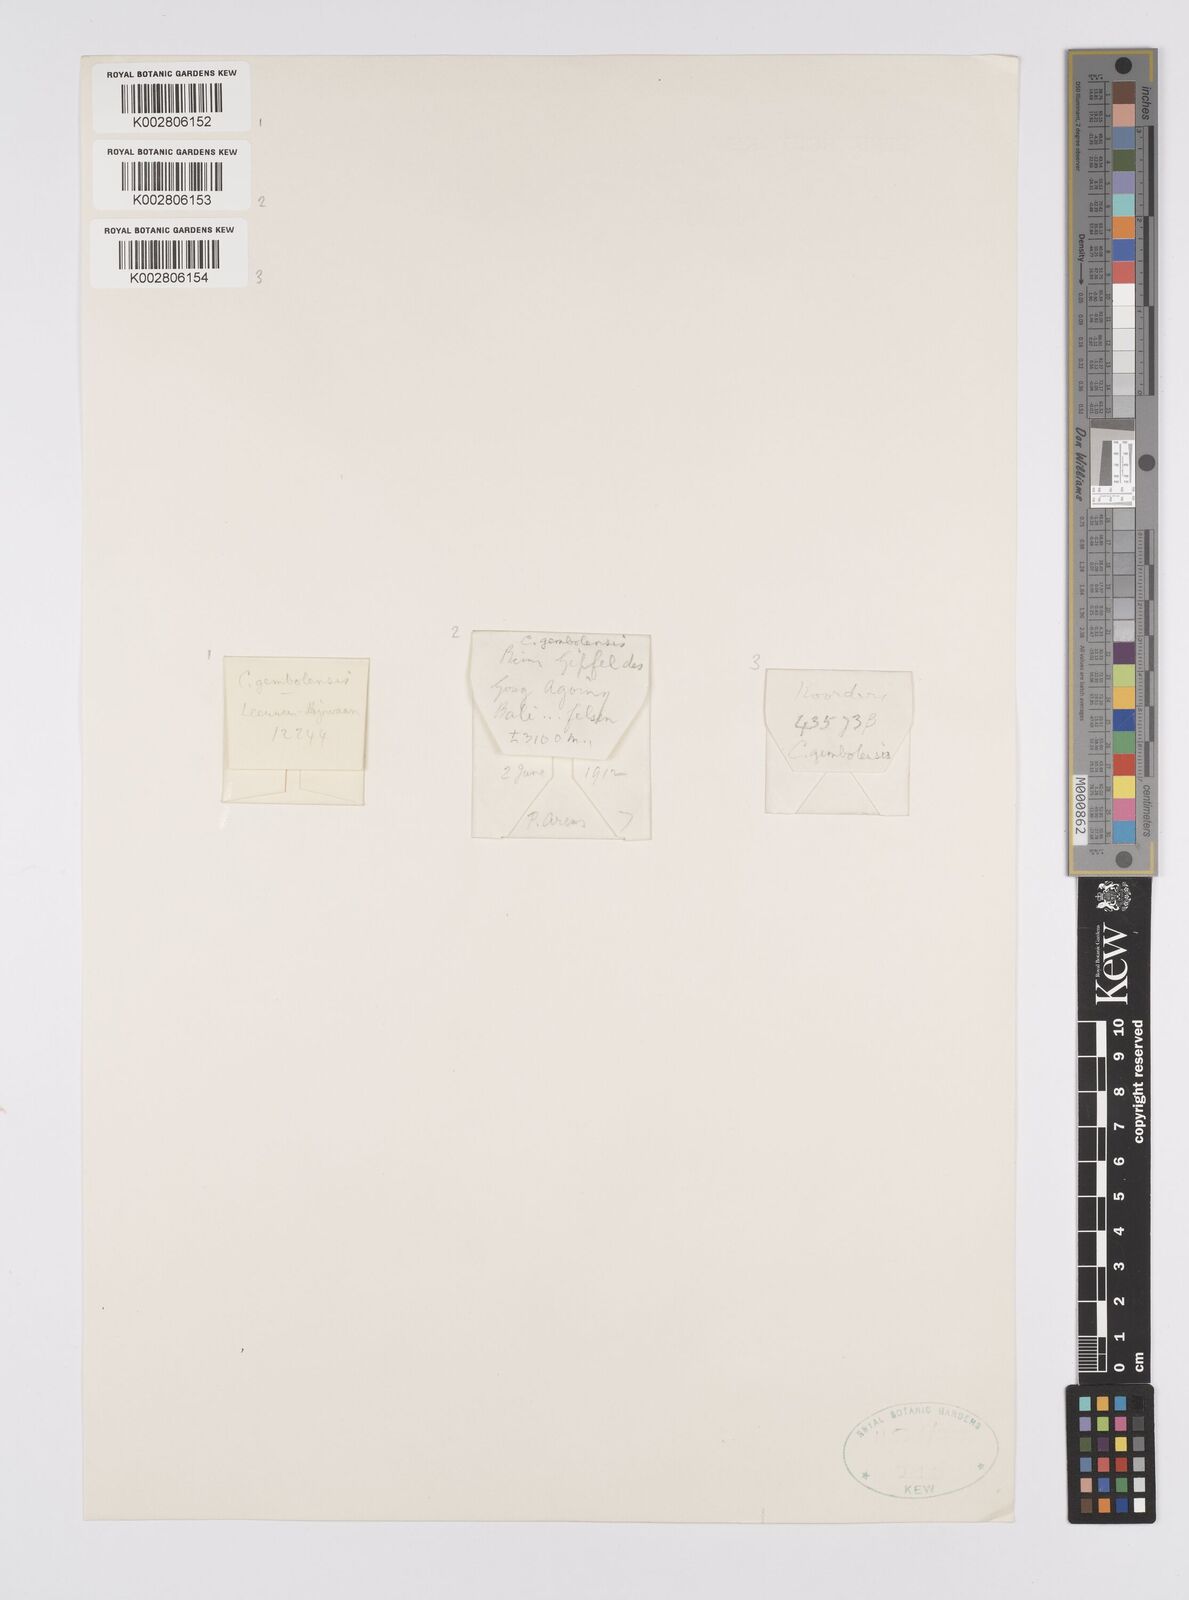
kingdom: Plantae
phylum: Tracheophyta
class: Liliopsida
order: Poales
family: Cyperaceae
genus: Carex
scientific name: Carex vesiculosa
